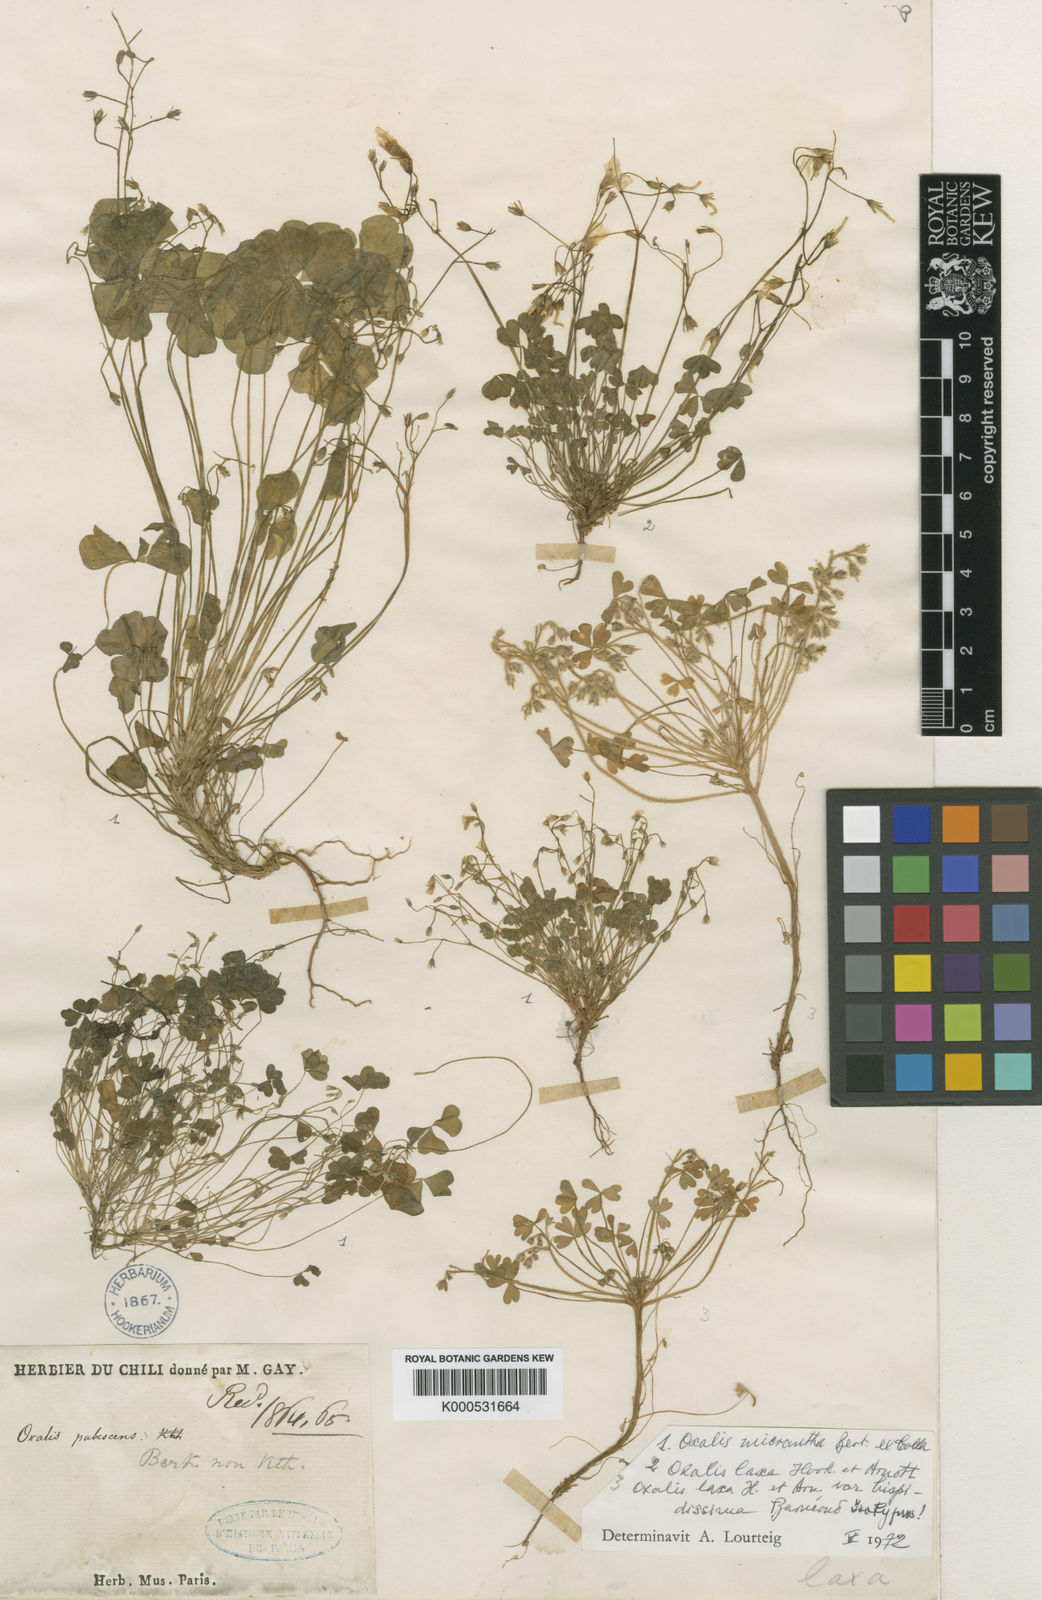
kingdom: Plantae
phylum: Tracheophyta
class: Magnoliopsida
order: Oxalidales
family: Oxalidaceae
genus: Oxalis
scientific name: Oxalis laxa
